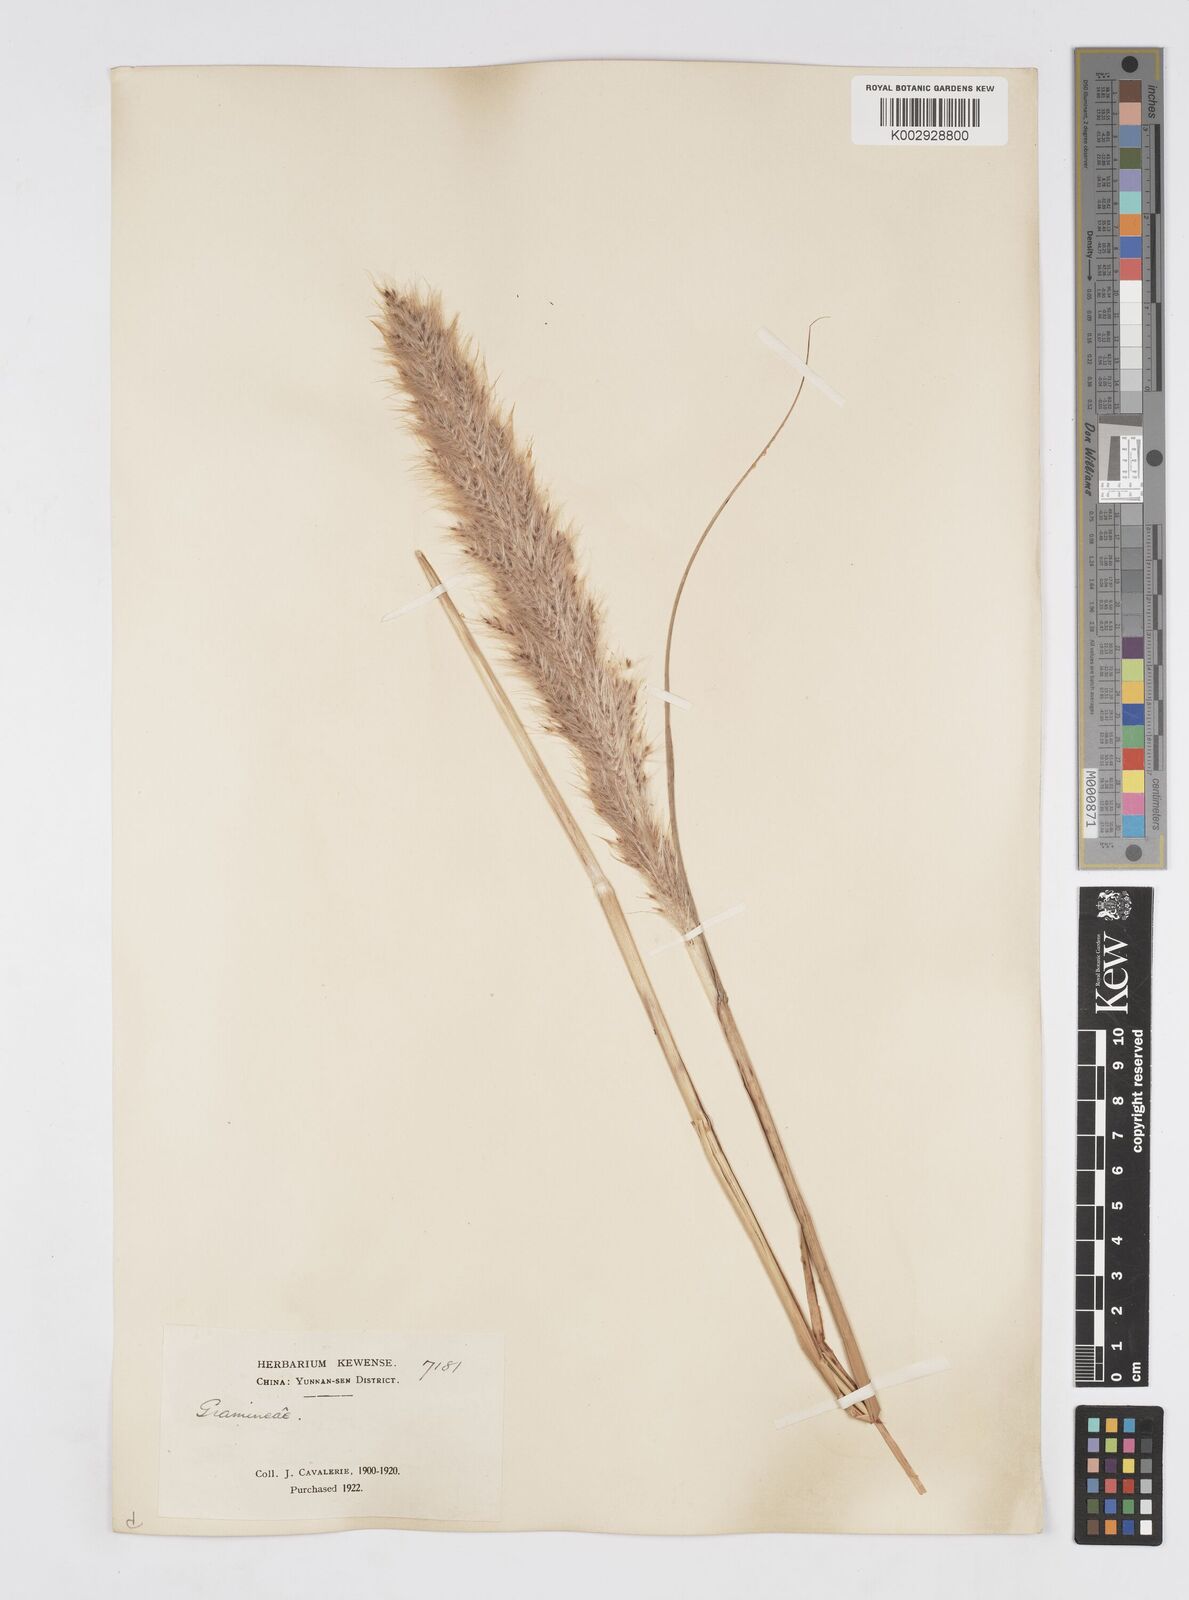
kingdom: Plantae
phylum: Tracheophyta
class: Liliopsida
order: Poales
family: Poaceae
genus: Tripidium
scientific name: Tripidium rufipilum
